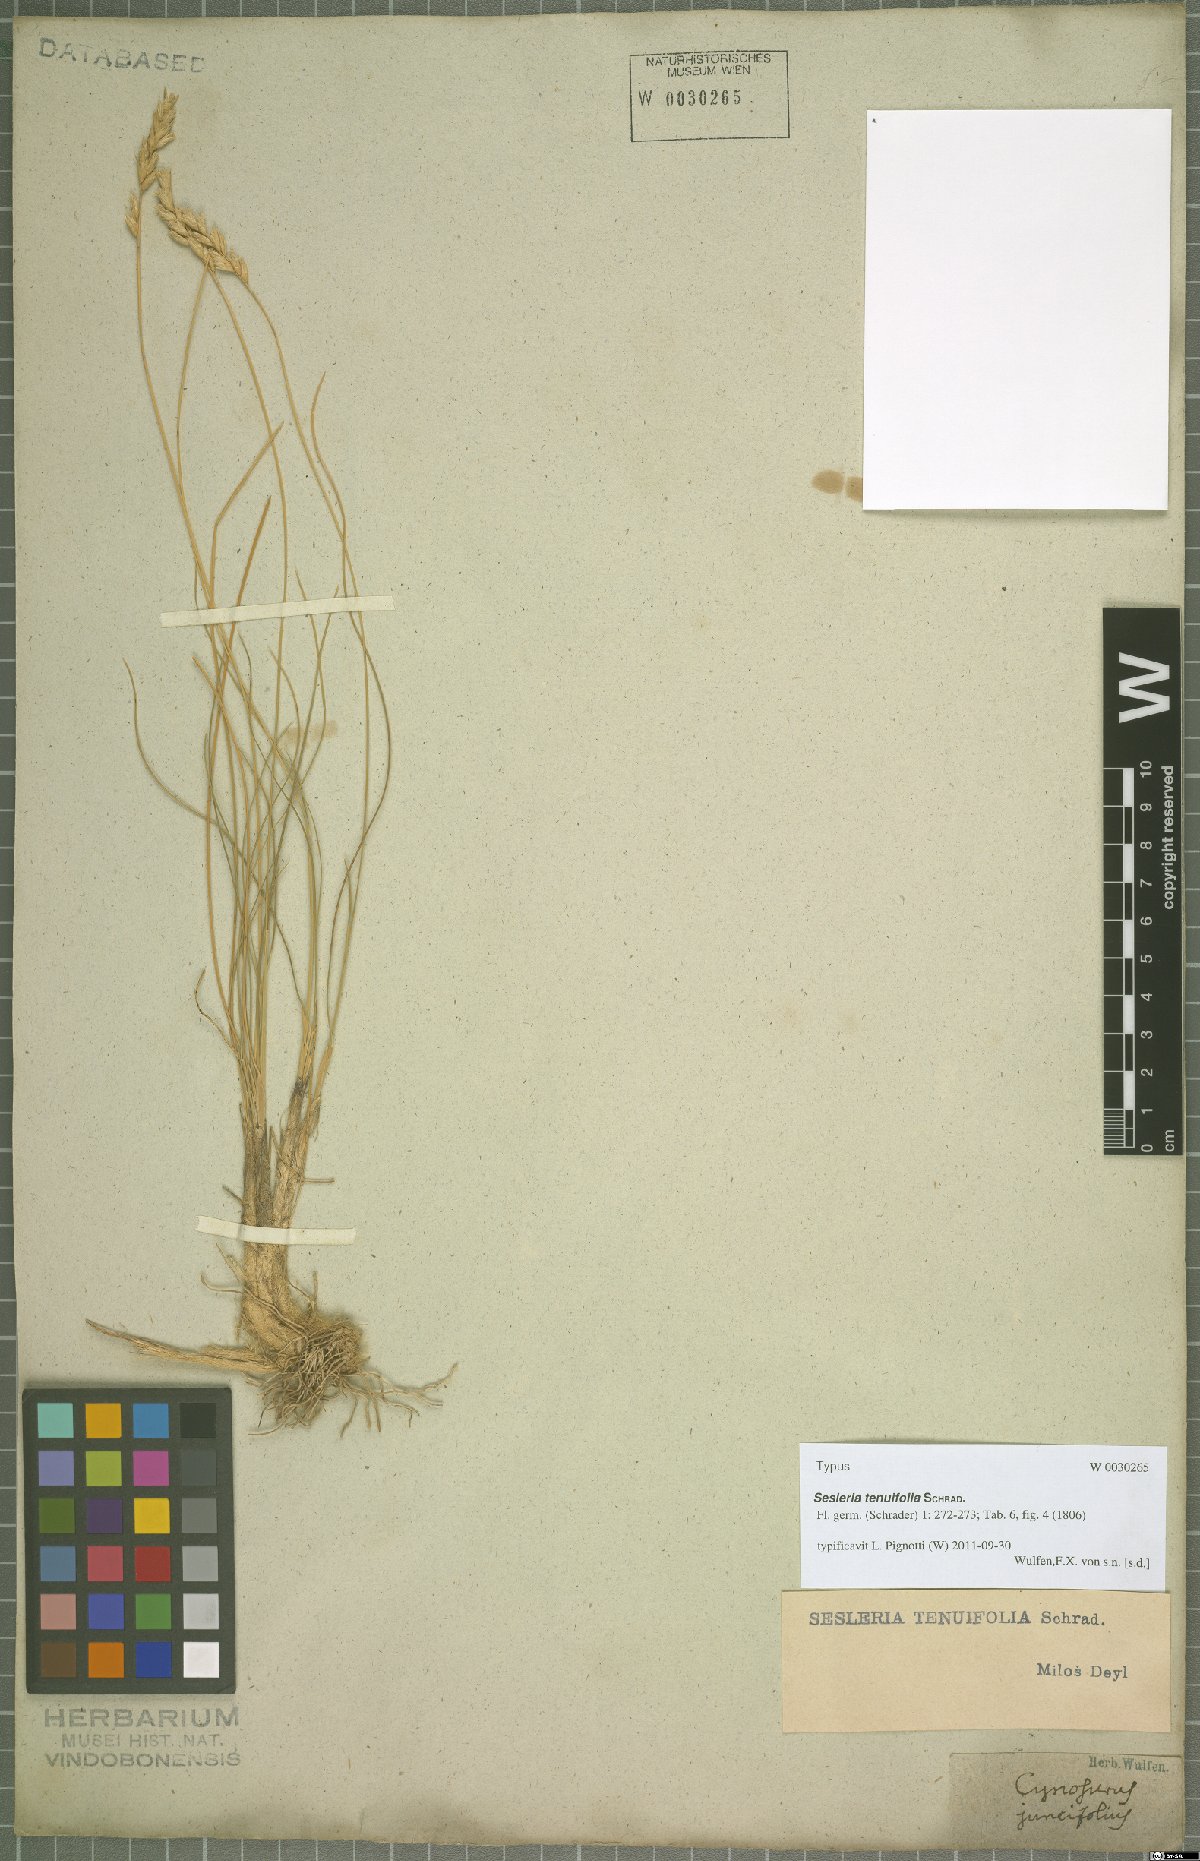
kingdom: Plantae
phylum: Tracheophyta
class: Liliopsida
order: Poales
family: Poaceae
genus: Sesleria
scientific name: Sesleria juncifolia
